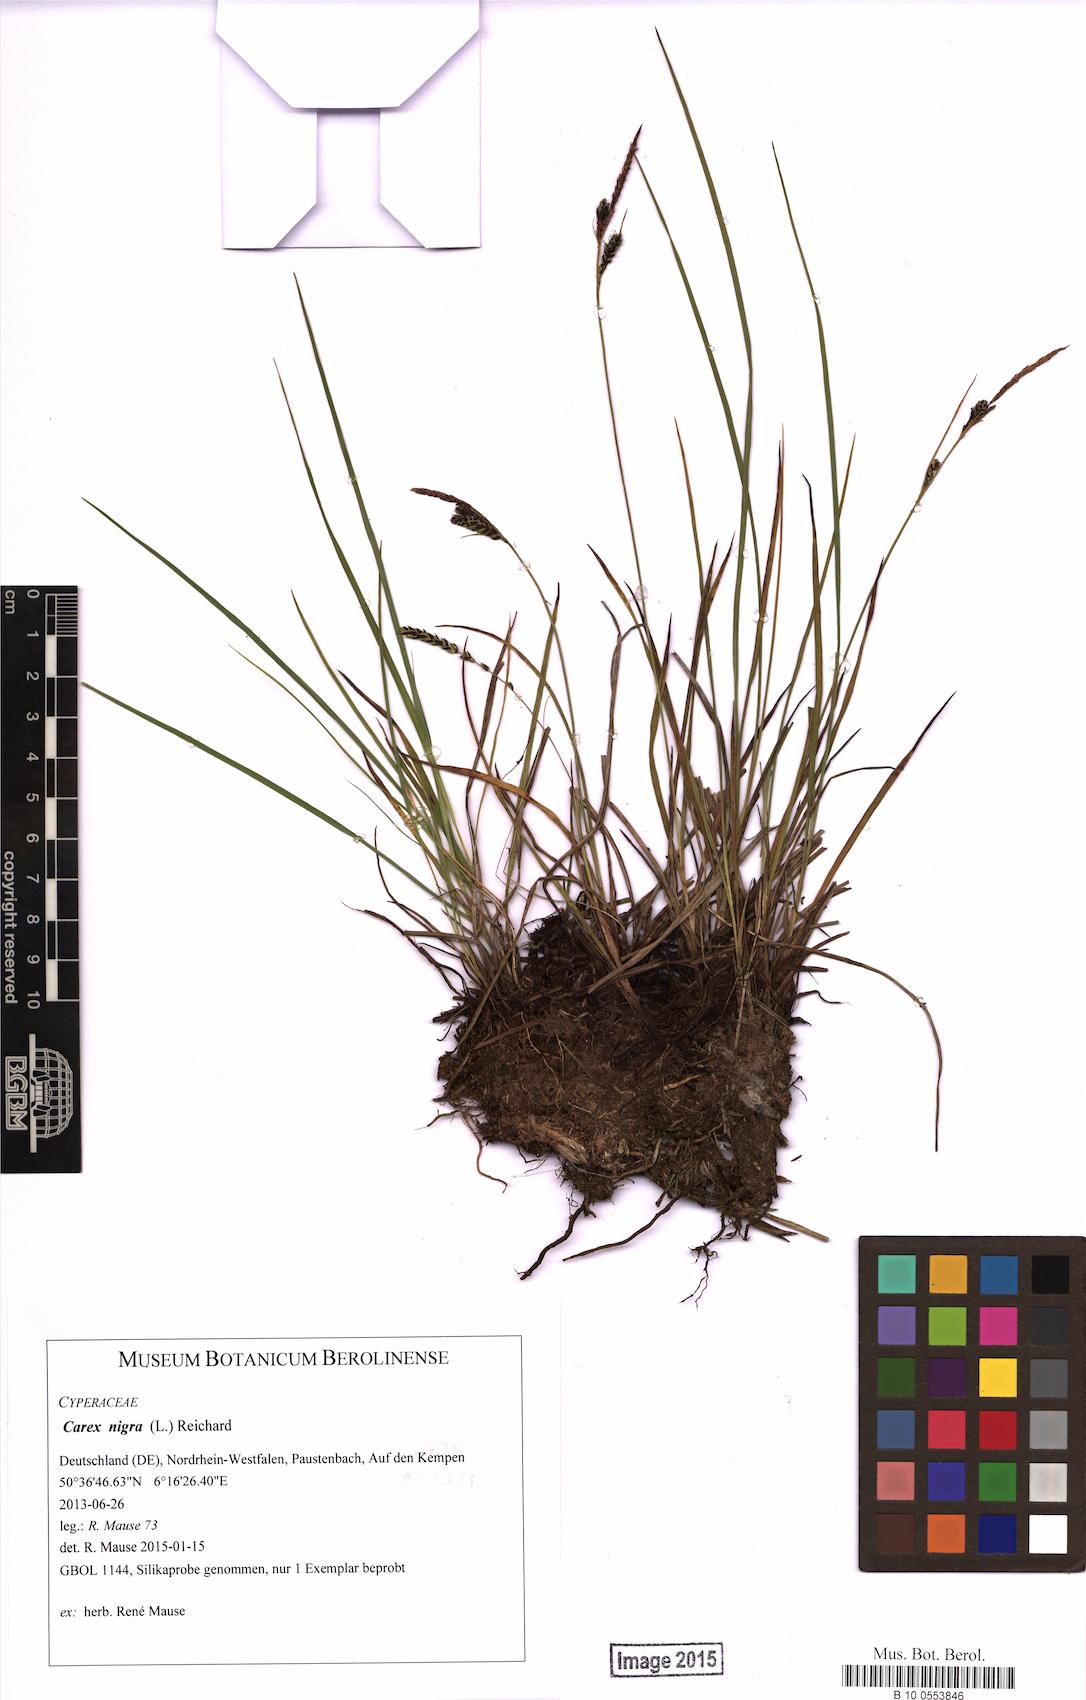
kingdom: Plantae
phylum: Tracheophyta
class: Liliopsida
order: Poales
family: Cyperaceae
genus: Carex
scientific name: Carex nigra
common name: Common sedge
